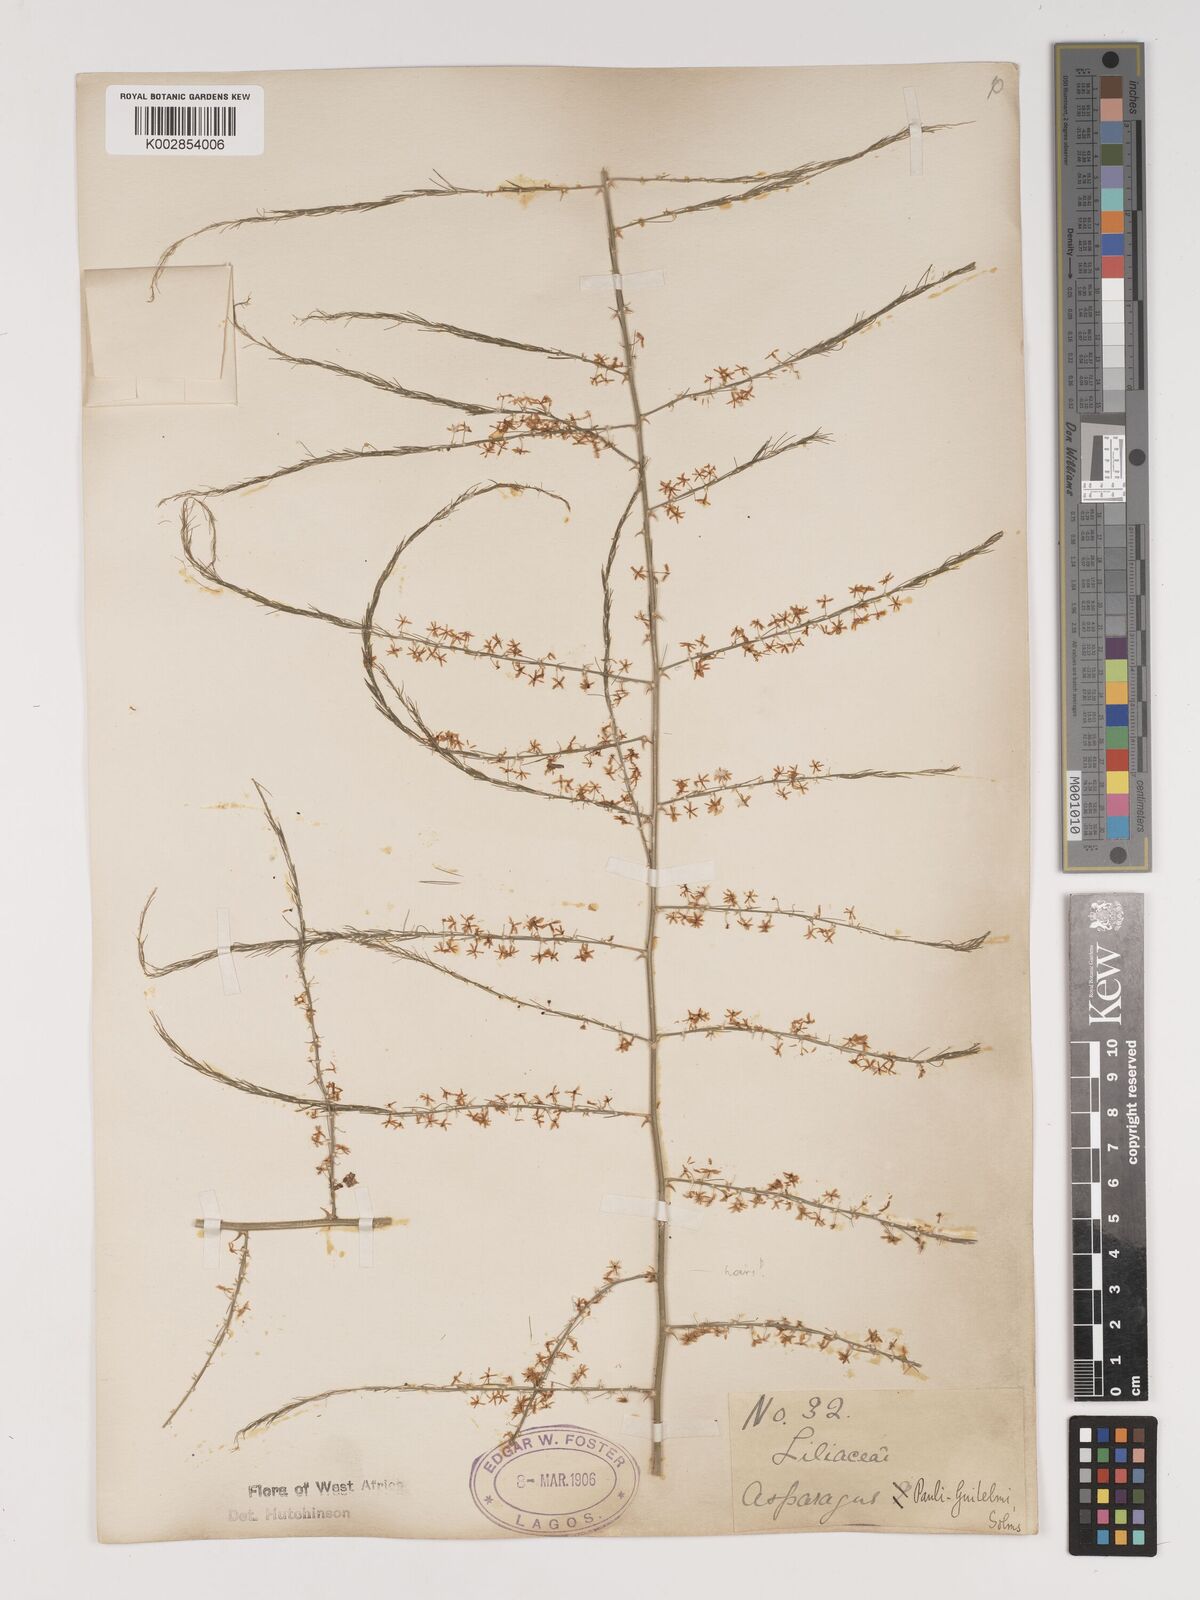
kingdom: Plantae
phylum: Tracheophyta
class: Liliopsida
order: Asparagales
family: Asparagaceae
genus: Asparagus
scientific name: Asparagus flagellaris
